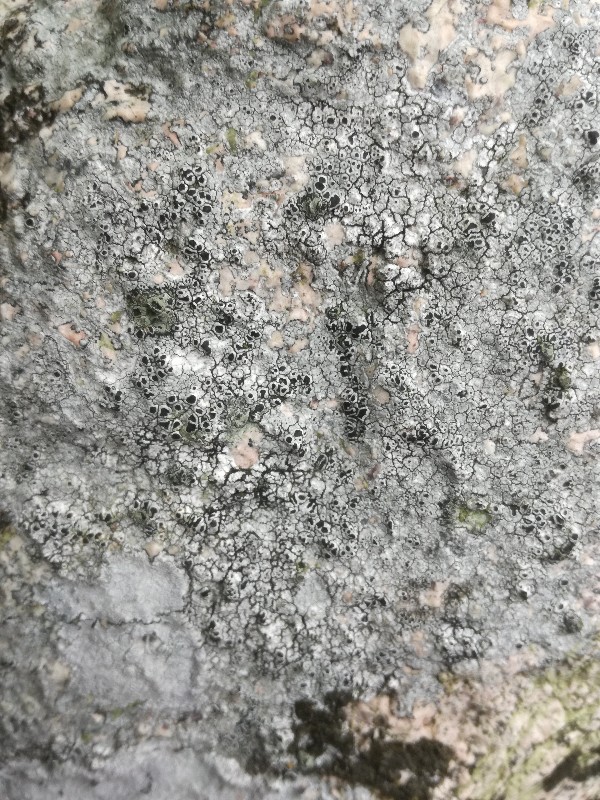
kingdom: Fungi
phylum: Ascomycota
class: Lecanoromycetes
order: Lecanorales
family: Tephromelataceae
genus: Tephromela
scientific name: Tephromela atra
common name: sortfrugtet kantskivelav
